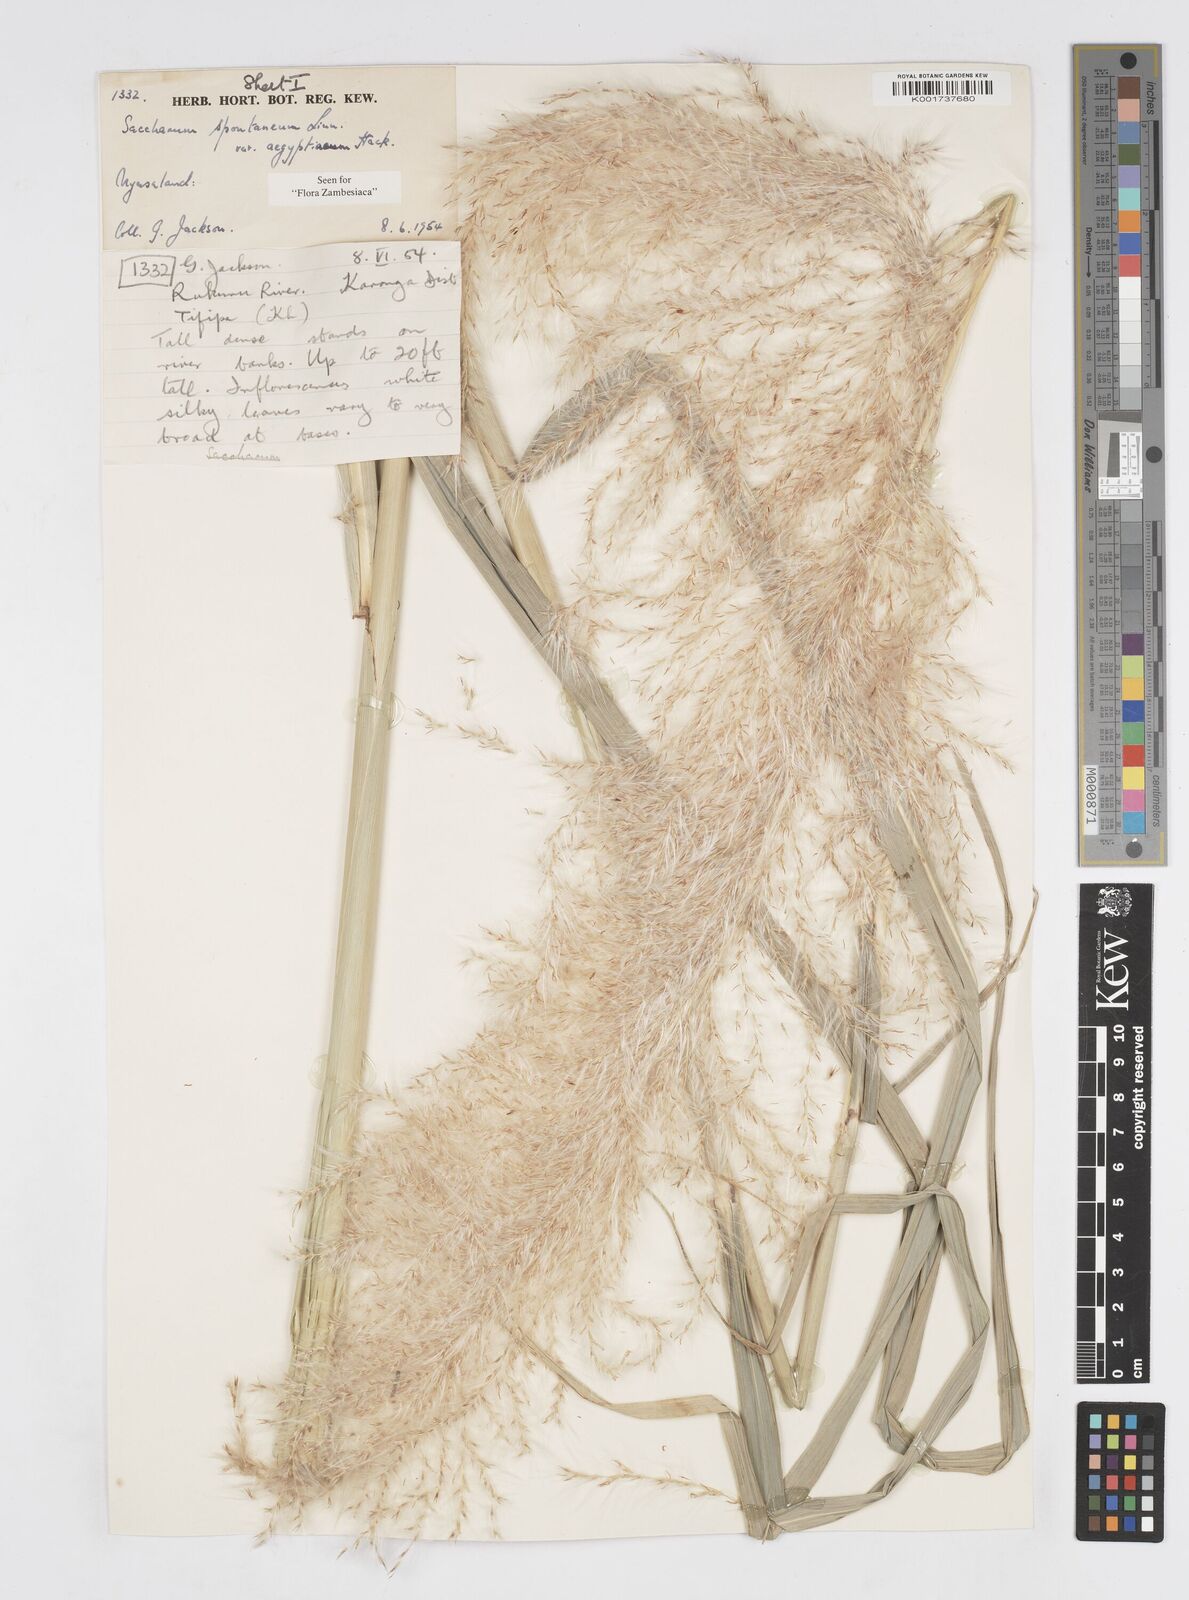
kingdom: Plantae
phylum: Tracheophyta
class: Liliopsida
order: Poales
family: Poaceae
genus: Saccharum
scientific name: Saccharum spontaneum
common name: Wild sugarcane
